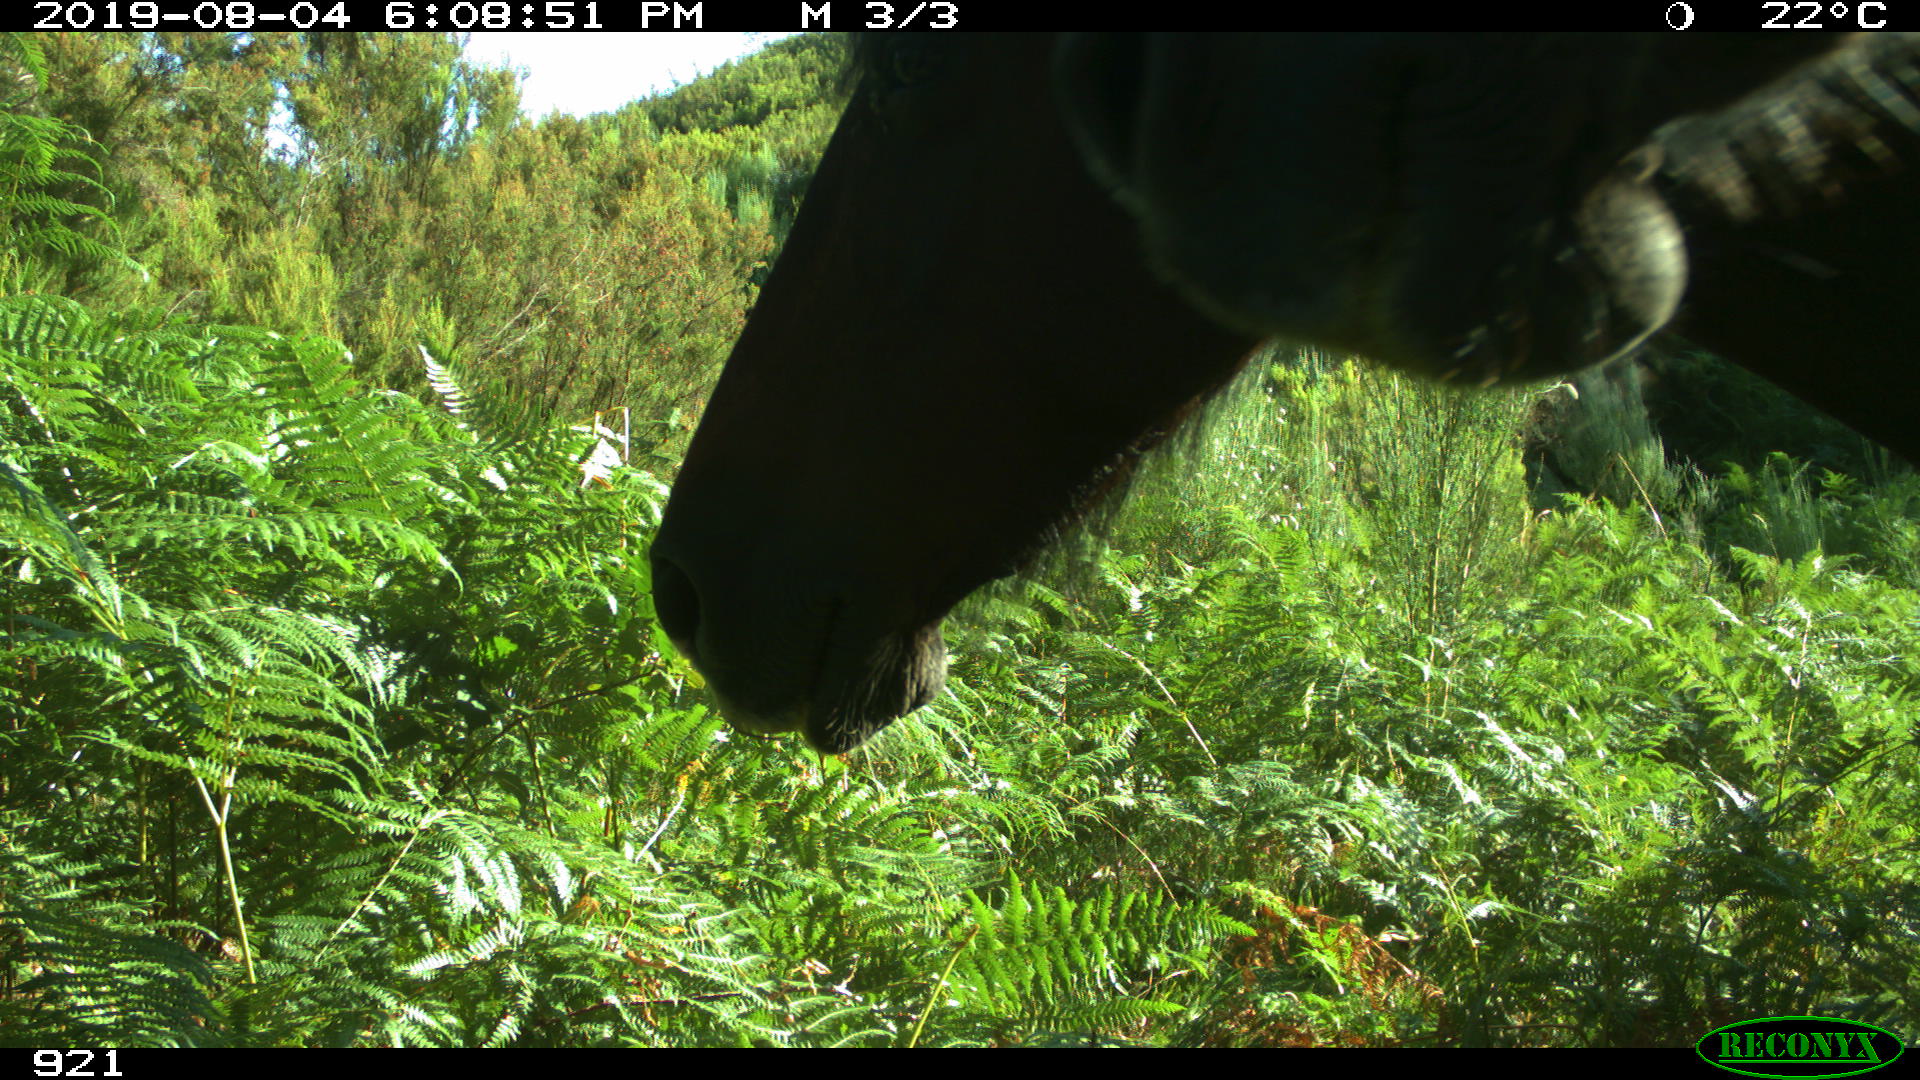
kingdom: Animalia
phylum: Chordata
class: Mammalia
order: Perissodactyla
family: Equidae
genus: Equus
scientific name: Equus caballus
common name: Horse
